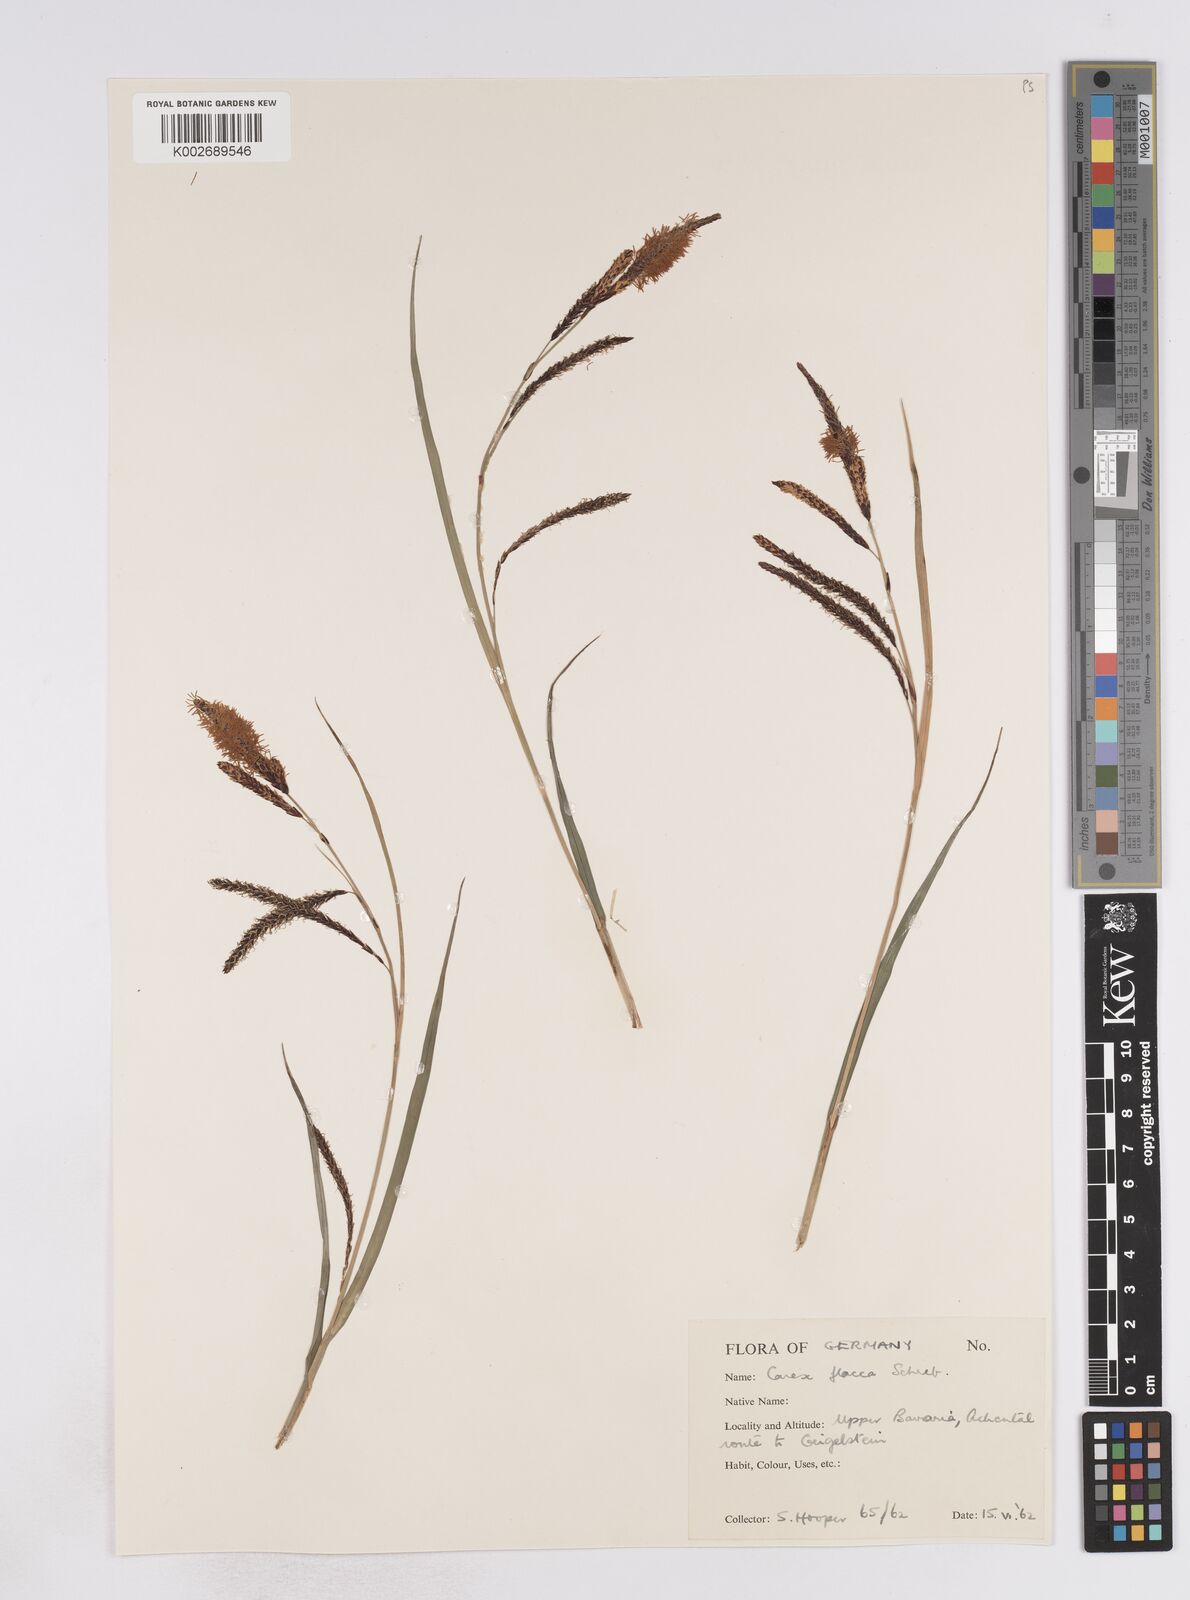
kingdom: Plantae
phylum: Tracheophyta
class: Liliopsida
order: Poales
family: Cyperaceae
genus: Carex
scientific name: Carex flacca
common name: Glaucous sedge
